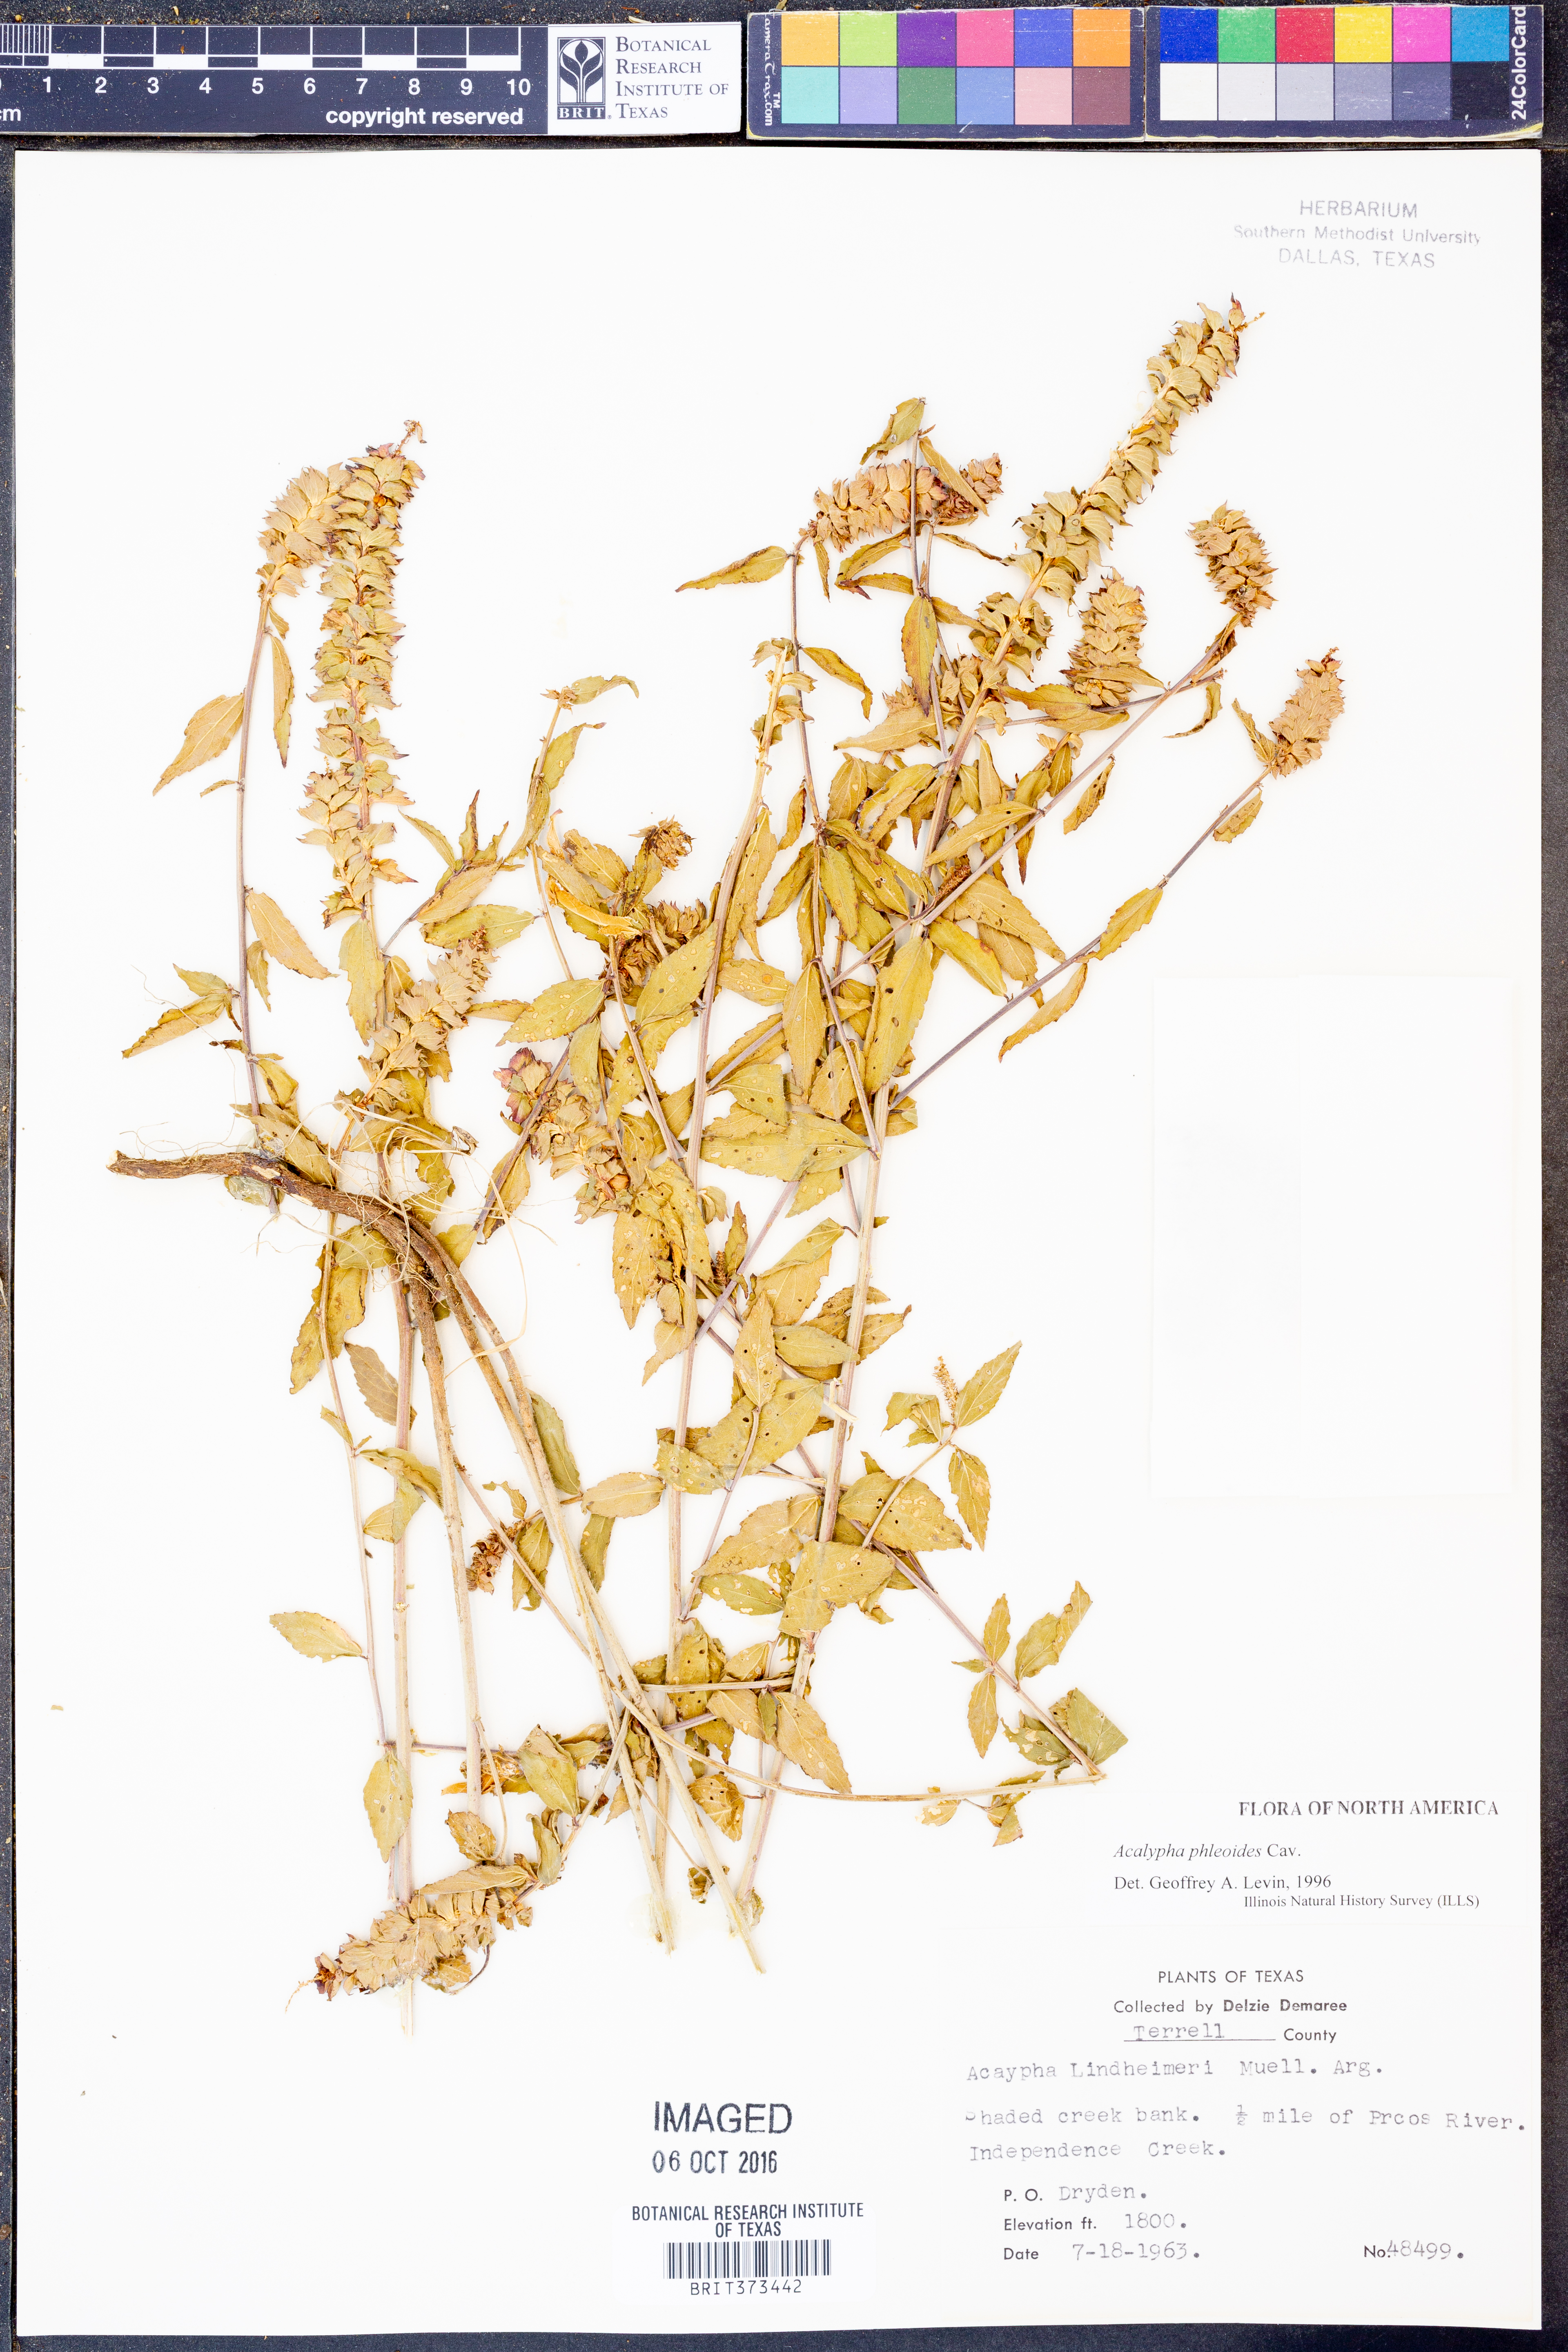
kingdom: Plantae
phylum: Tracheophyta
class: Magnoliopsida
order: Malpighiales
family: Euphorbiaceae
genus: Acalypha
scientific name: Acalypha phleoides
